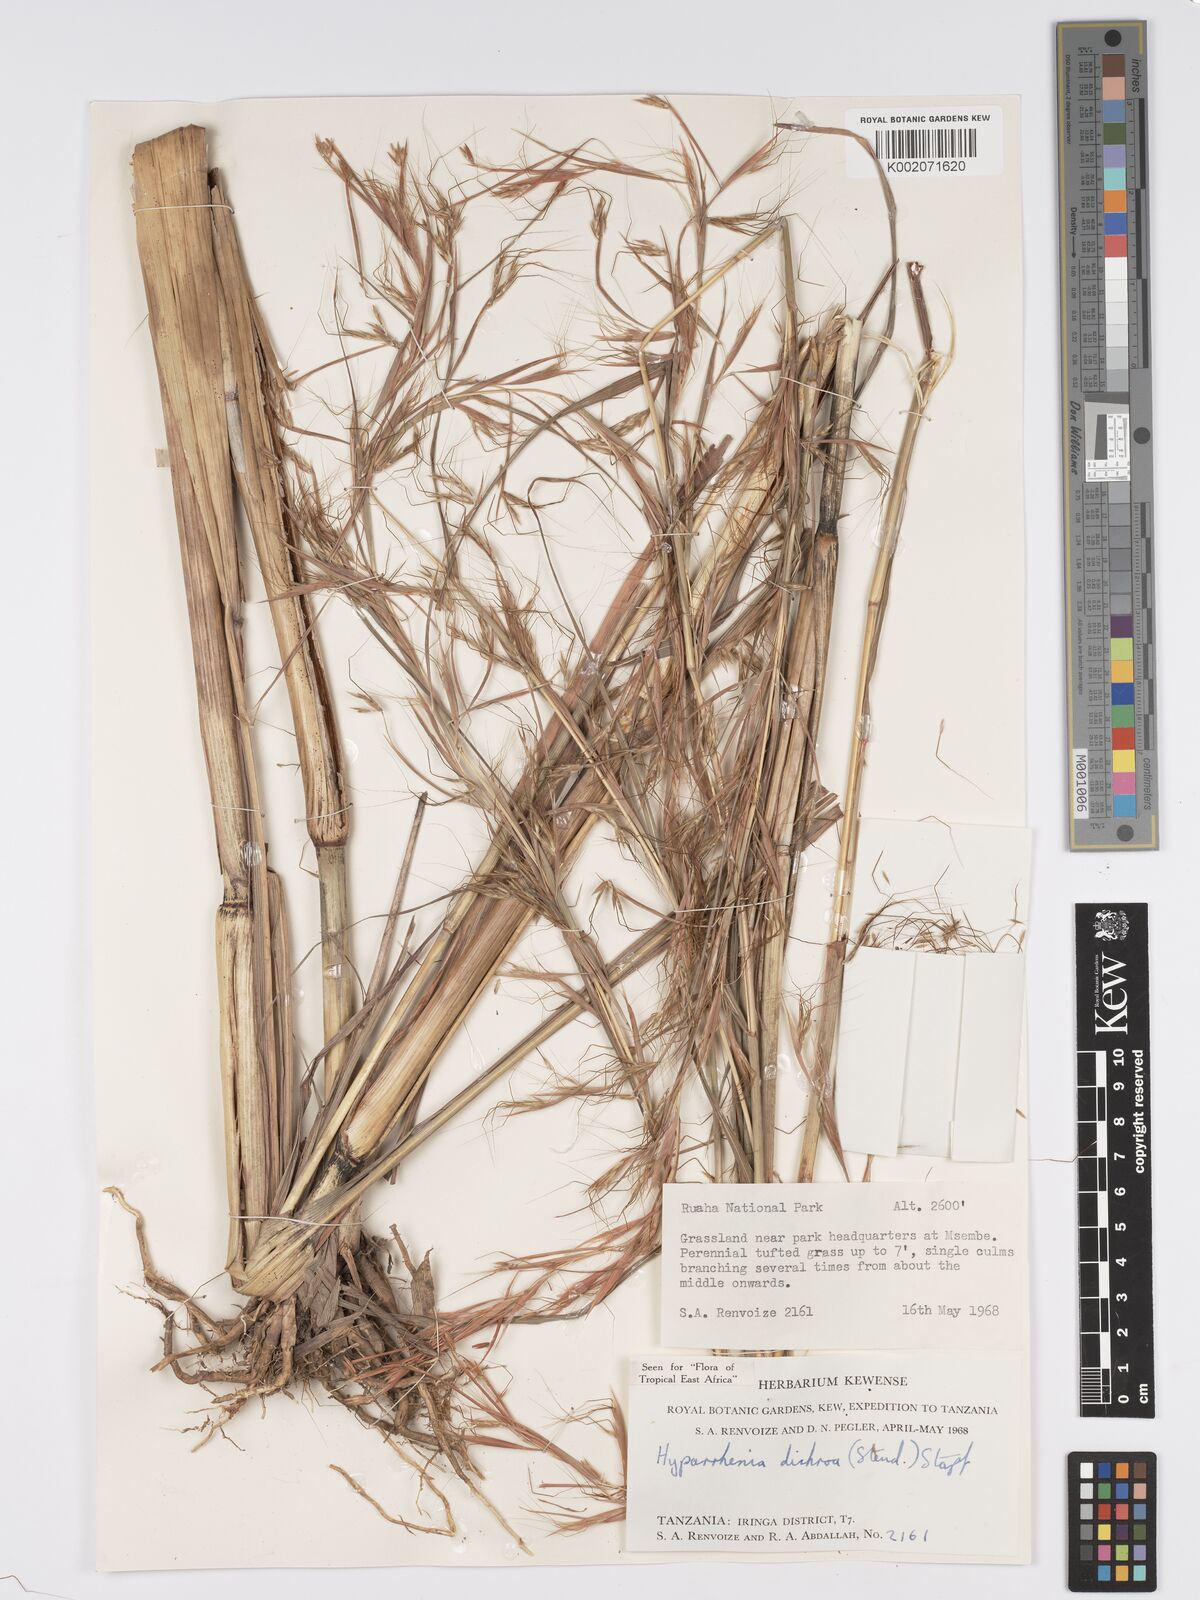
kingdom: Plantae
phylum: Tracheophyta
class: Liliopsida
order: Poales
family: Poaceae
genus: Hyparrhenia
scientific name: Hyparrhenia dichroa
